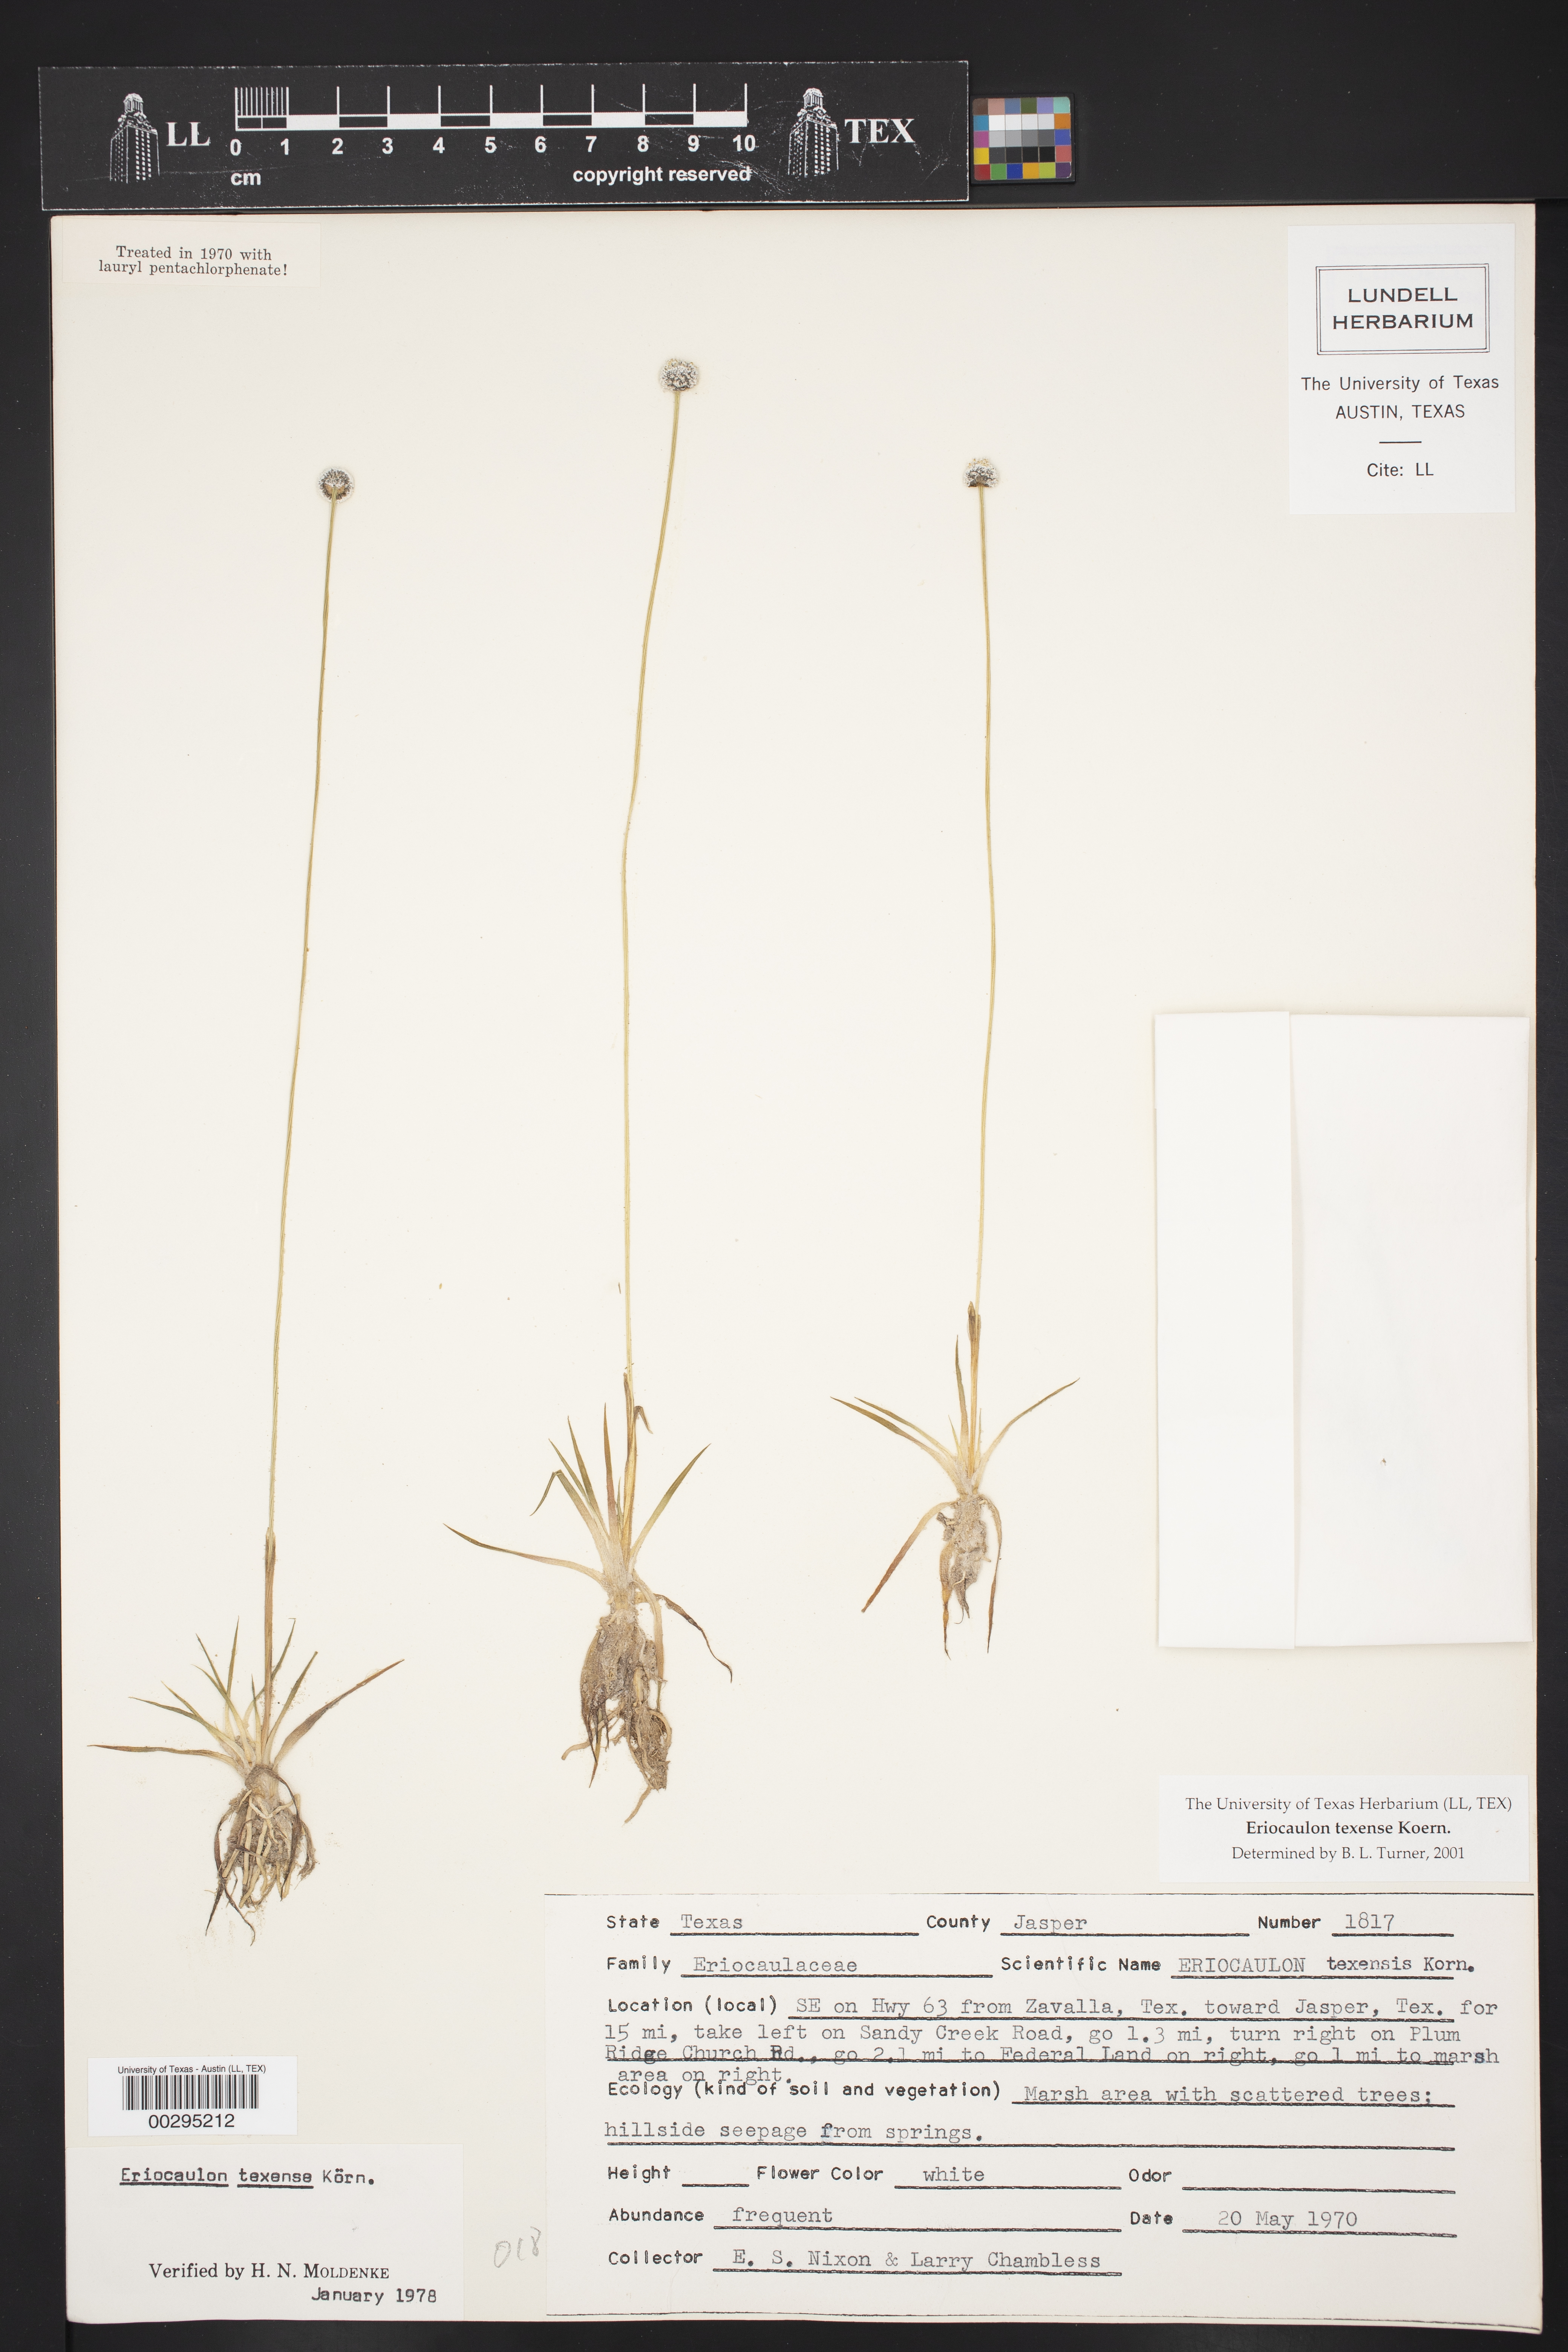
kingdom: Plantae
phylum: Tracheophyta
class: Liliopsida
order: Poales
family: Eriocaulaceae
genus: Eriocaulon
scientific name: Eriocaulon texense
